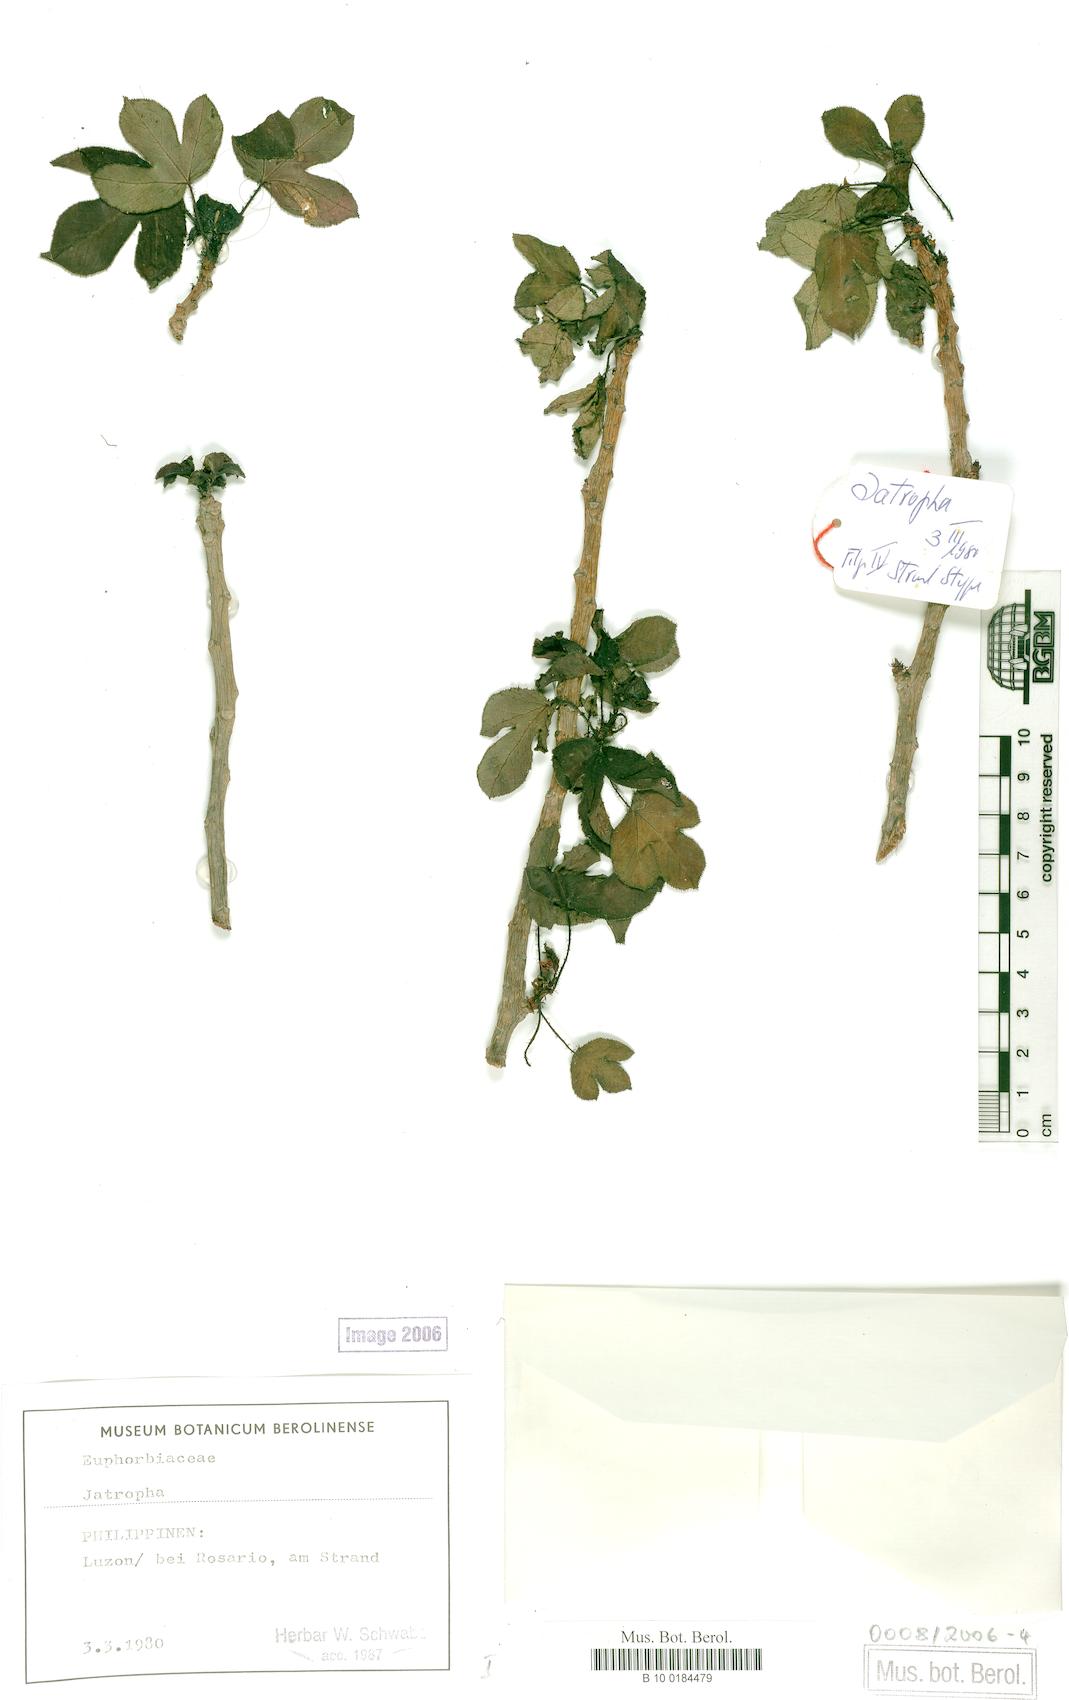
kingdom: Plantae
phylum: Tracheophyta
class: Magnoliopsida
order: Malpighiales
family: Euphorbiaceae
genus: Jatropha
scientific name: Jatropha gossypiifolia
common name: Bellyache bush
